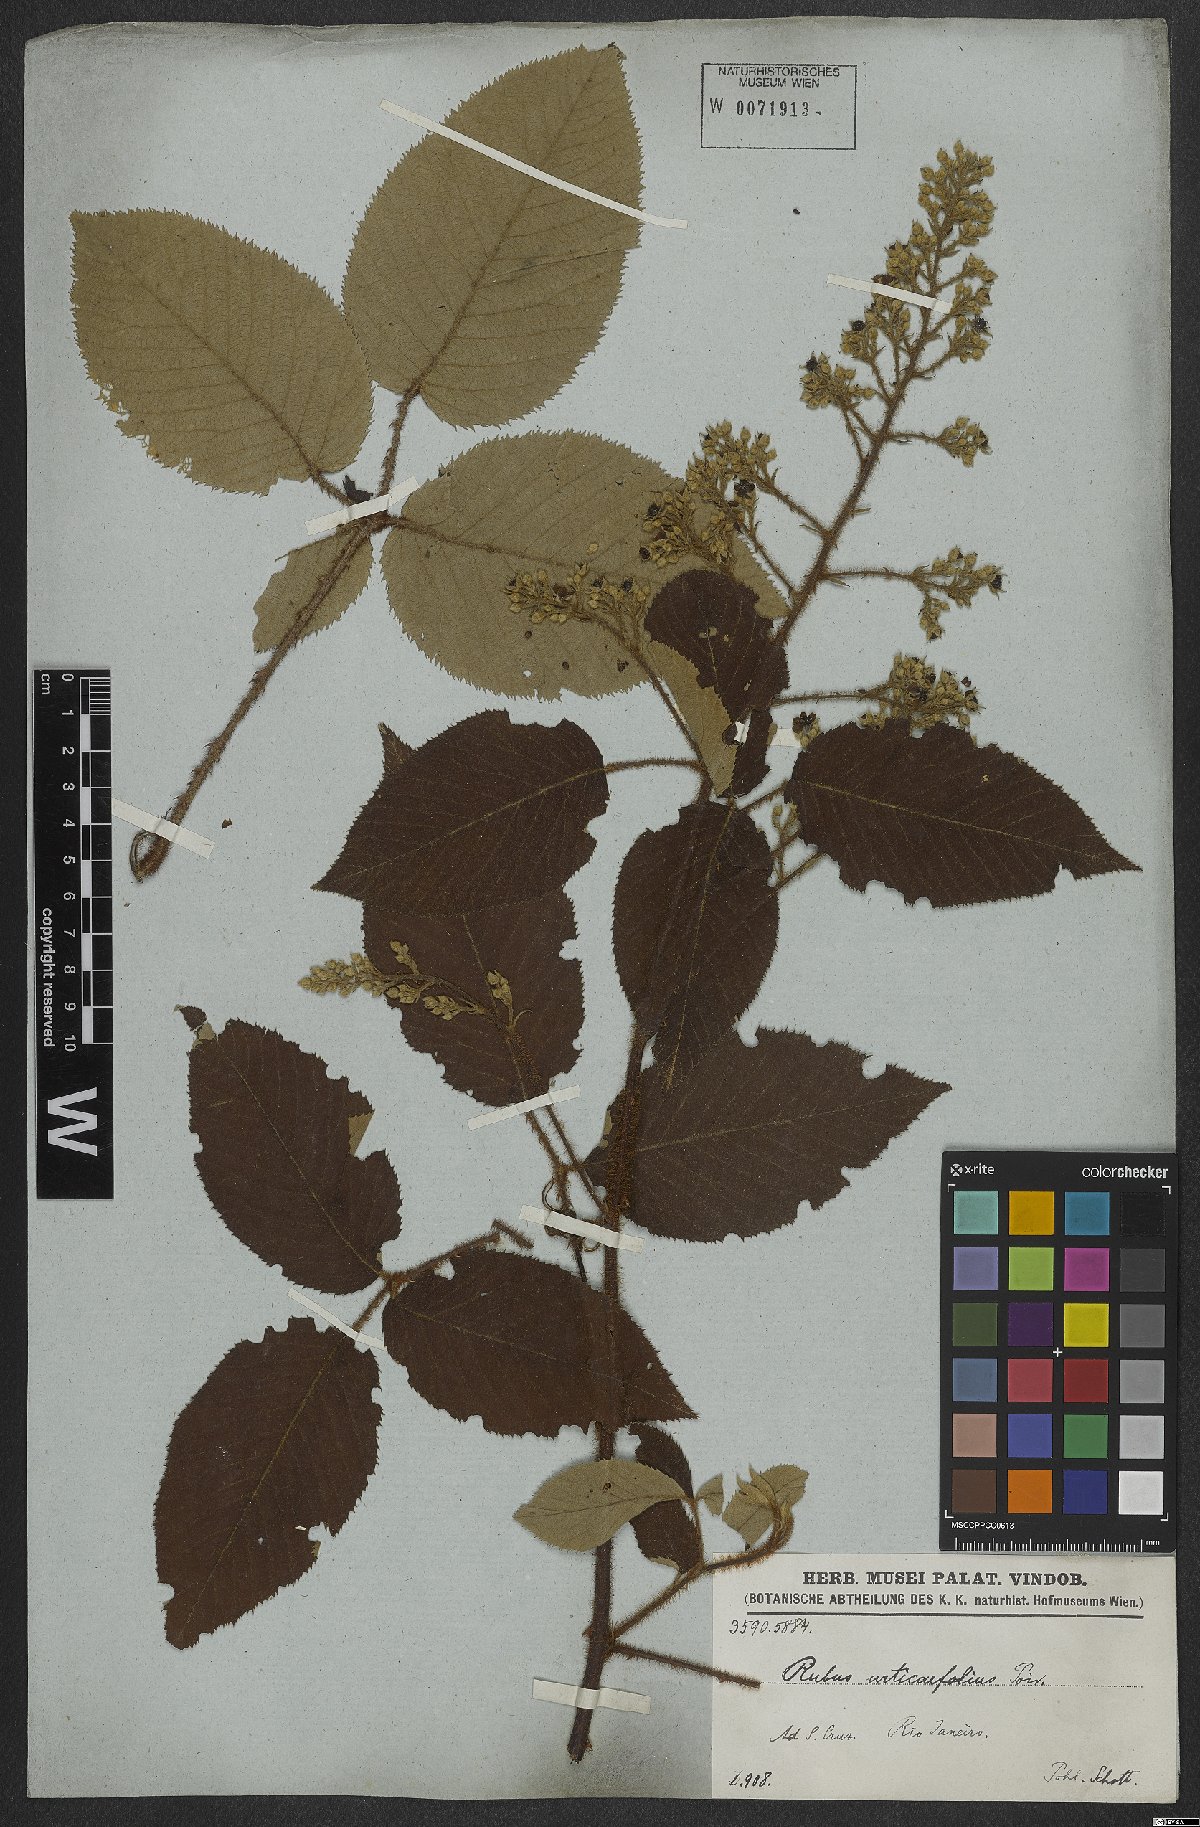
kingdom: Plantae
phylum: Tracheophyta
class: Magnoliopsida
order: Rosales
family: Rosaceae
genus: Rubus
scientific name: Rubus urticifolius
